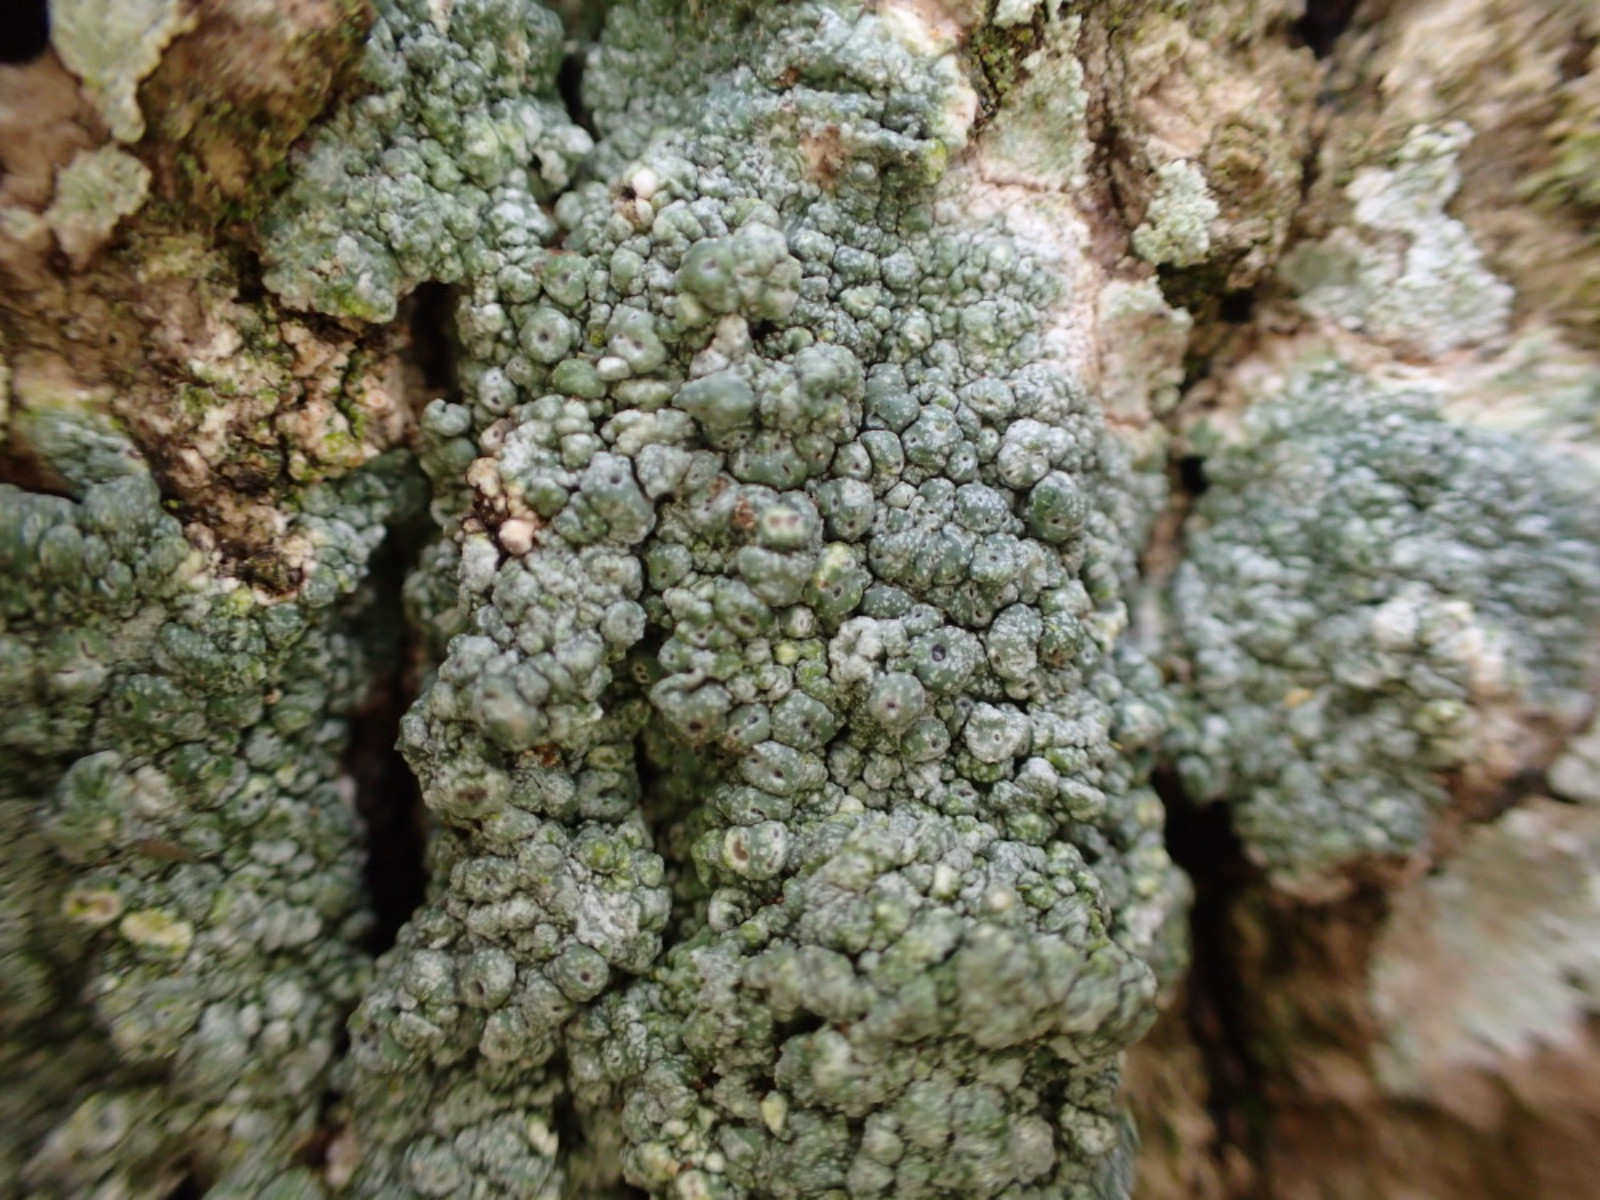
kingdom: Fungi
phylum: Ascomycota
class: Lecanoromycetes
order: Pertusariales
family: Pertusariaceae
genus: Pertusaria
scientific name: Pertusaria pertusa
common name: almindelig prikvortelav
